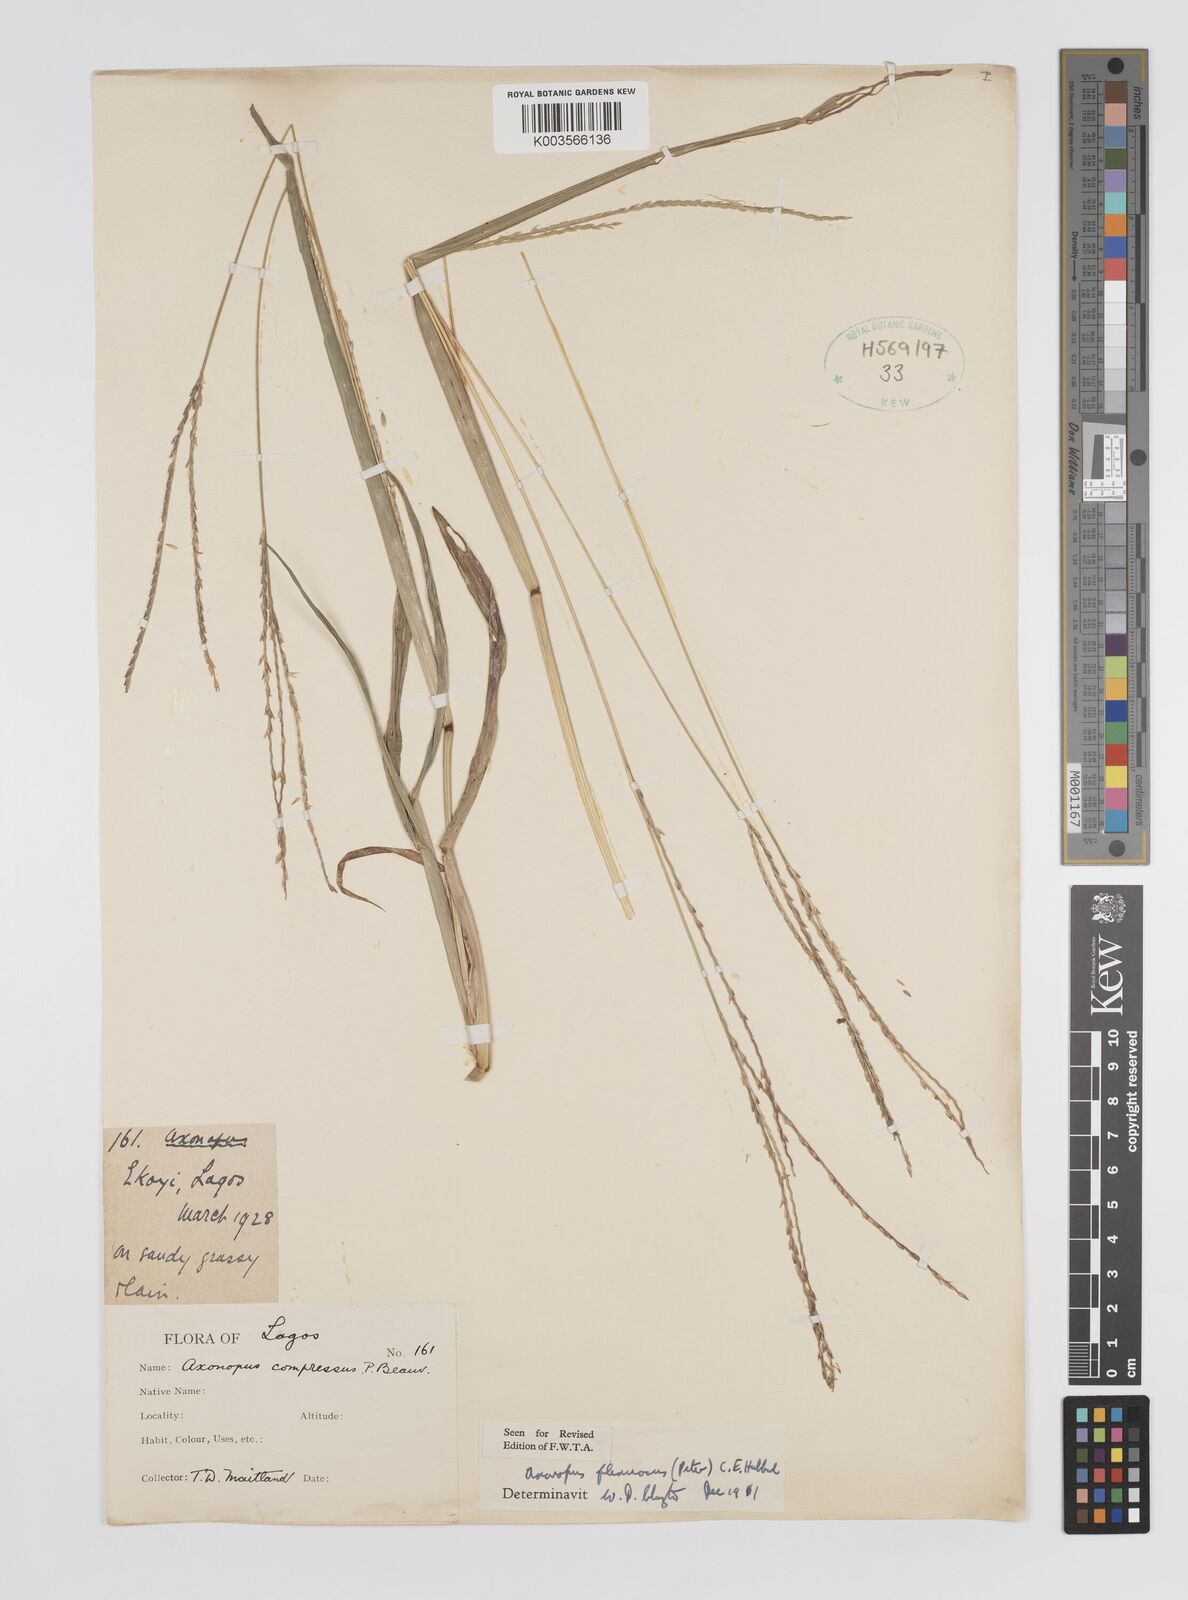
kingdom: Plantae
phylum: Tracheophyta
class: Liliopsida
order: Poales
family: Poaceae
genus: Axonopus
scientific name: Axonopus flexuosus
